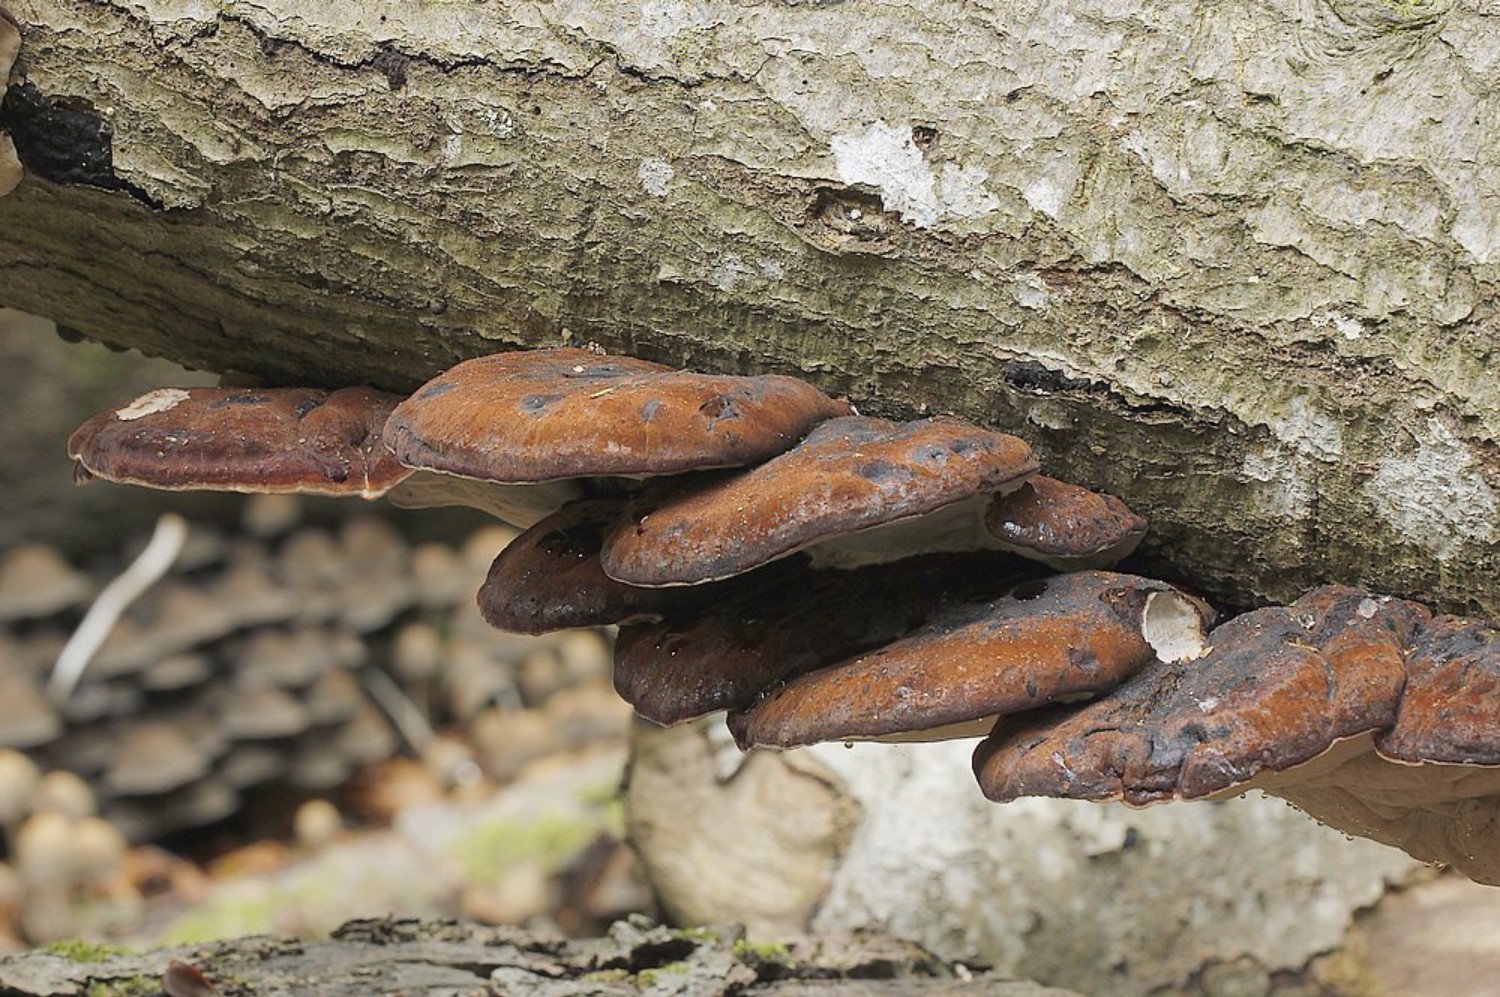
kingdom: Fungi
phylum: Basidiomycota
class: Agaricomycetes
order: Polyporales
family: Ischnodermataceae
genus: Ischnoderma
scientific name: Ischnoderma resinosum
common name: løv-tjæreporesvamp
